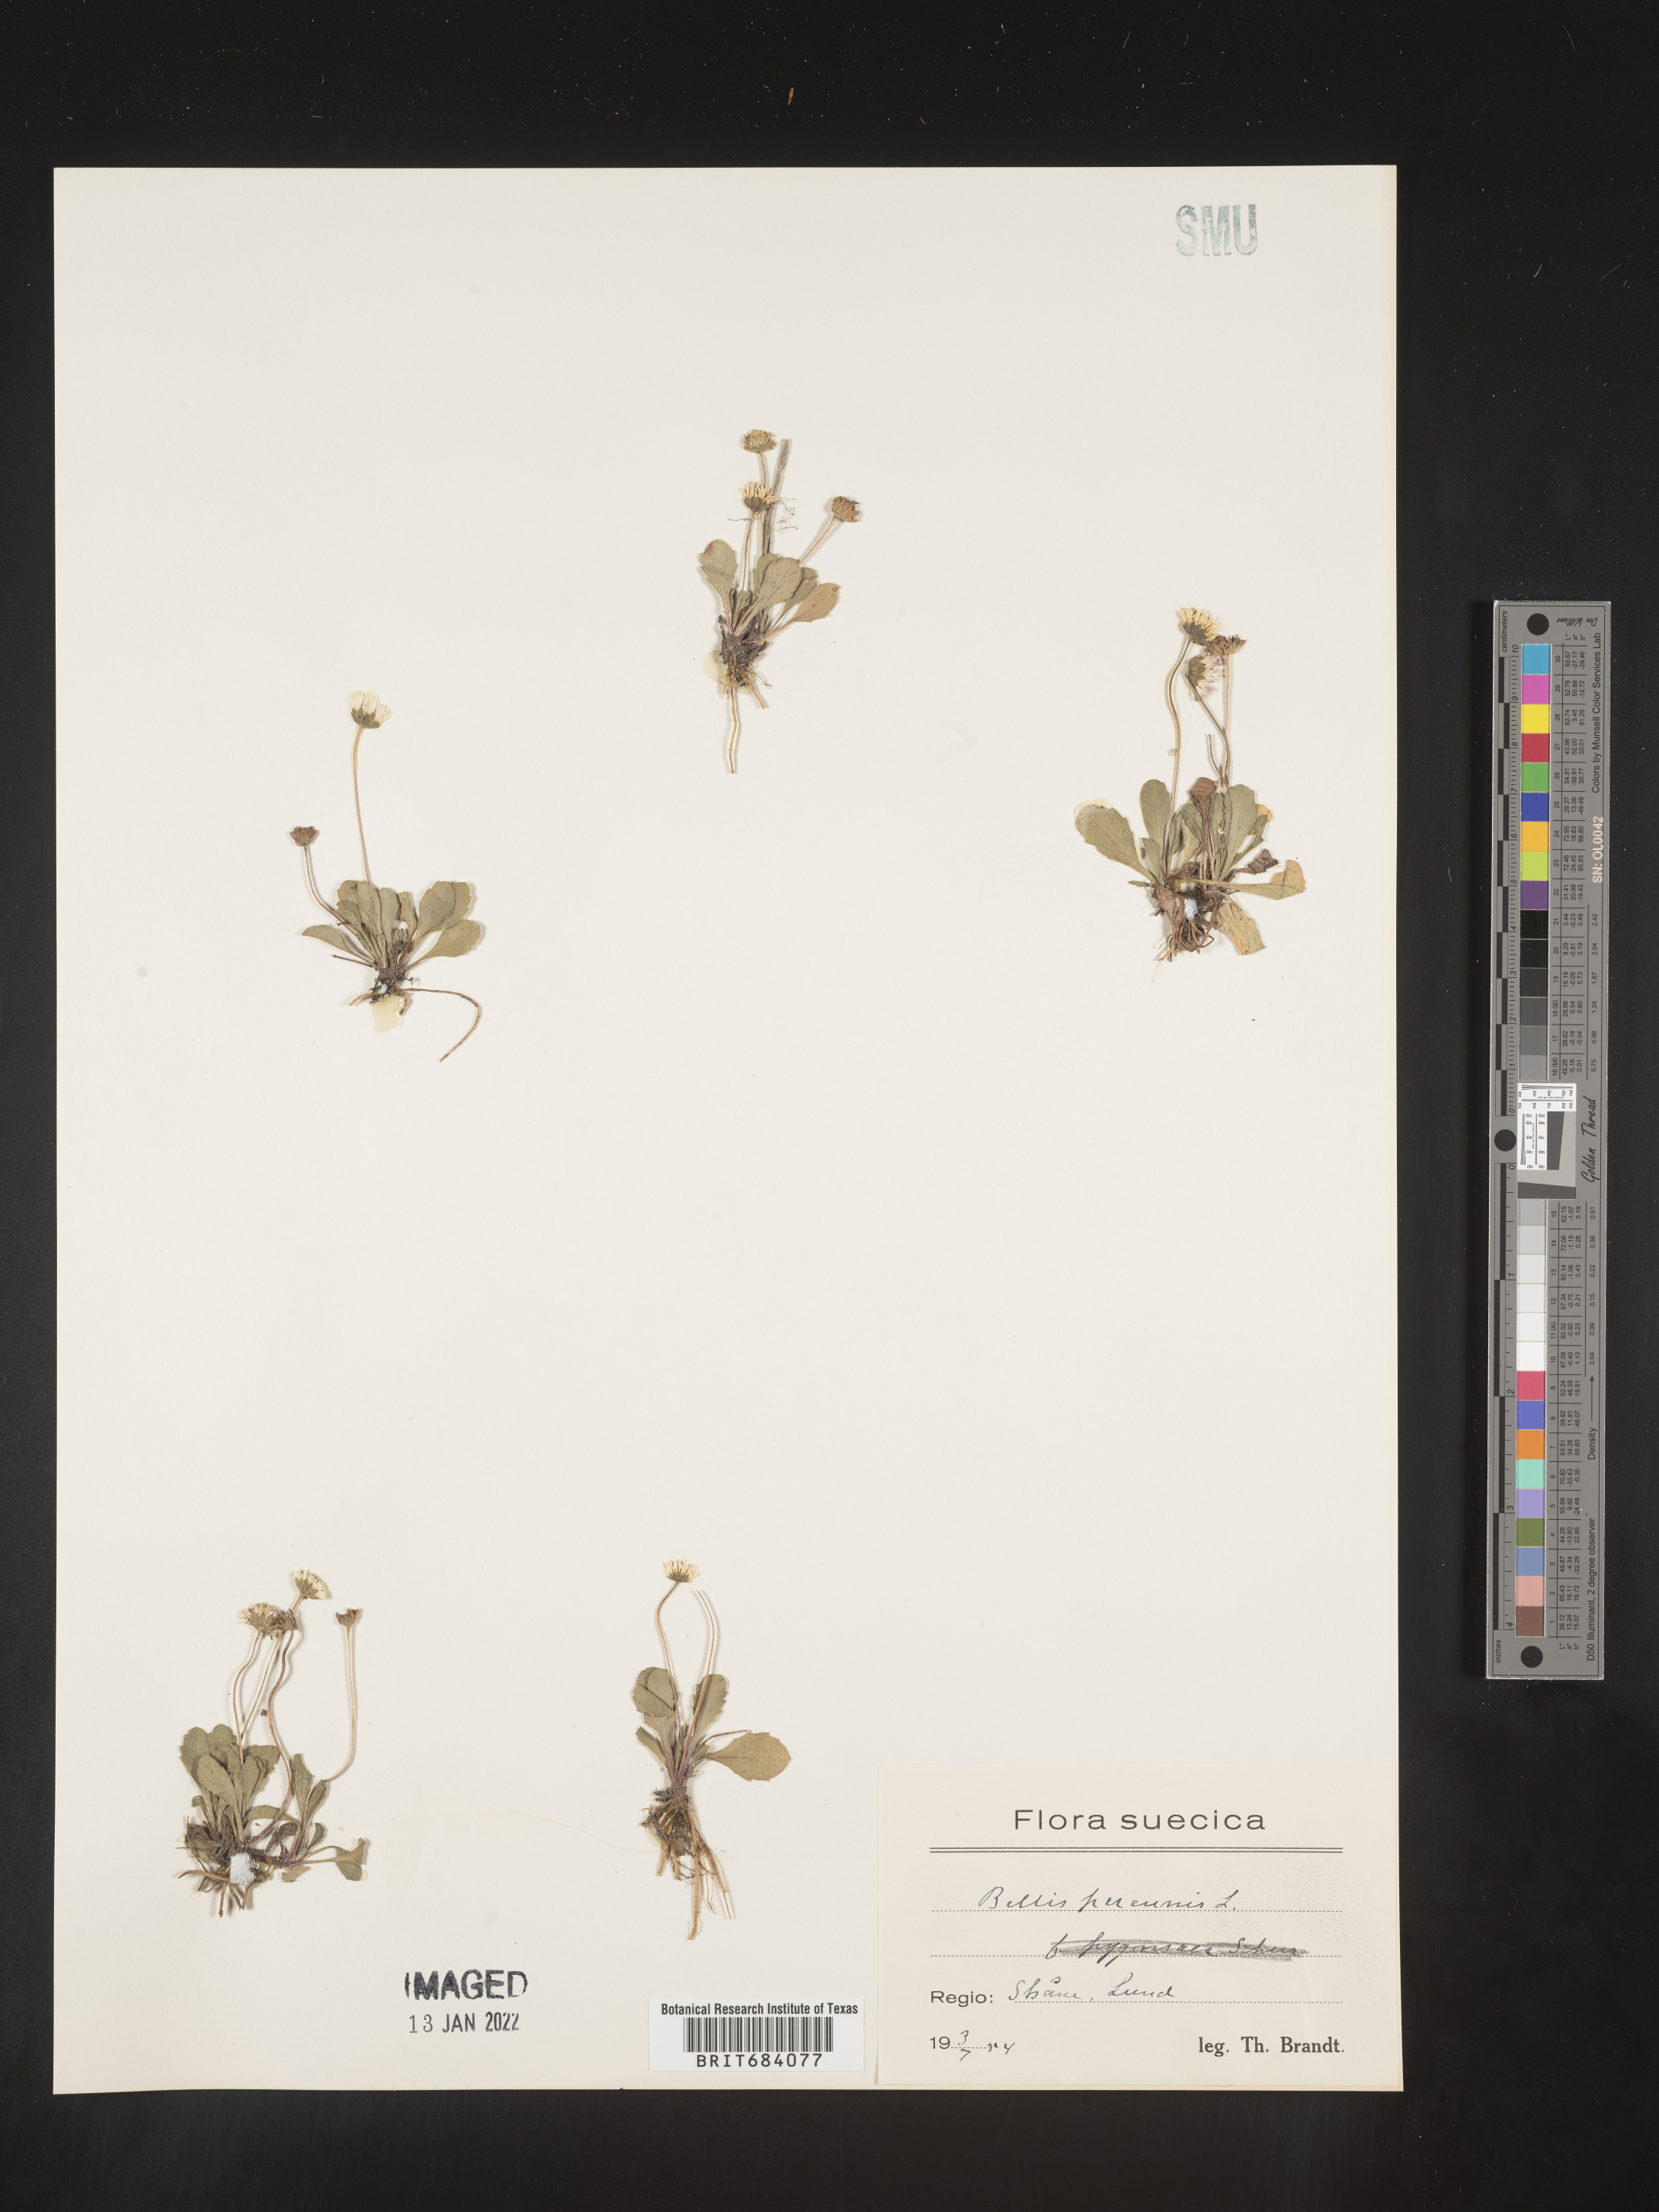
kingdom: Plantae
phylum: Tracheophyta
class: Magnoliopsida
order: Asterales
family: Asteraceae
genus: Bellis
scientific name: Bellis
